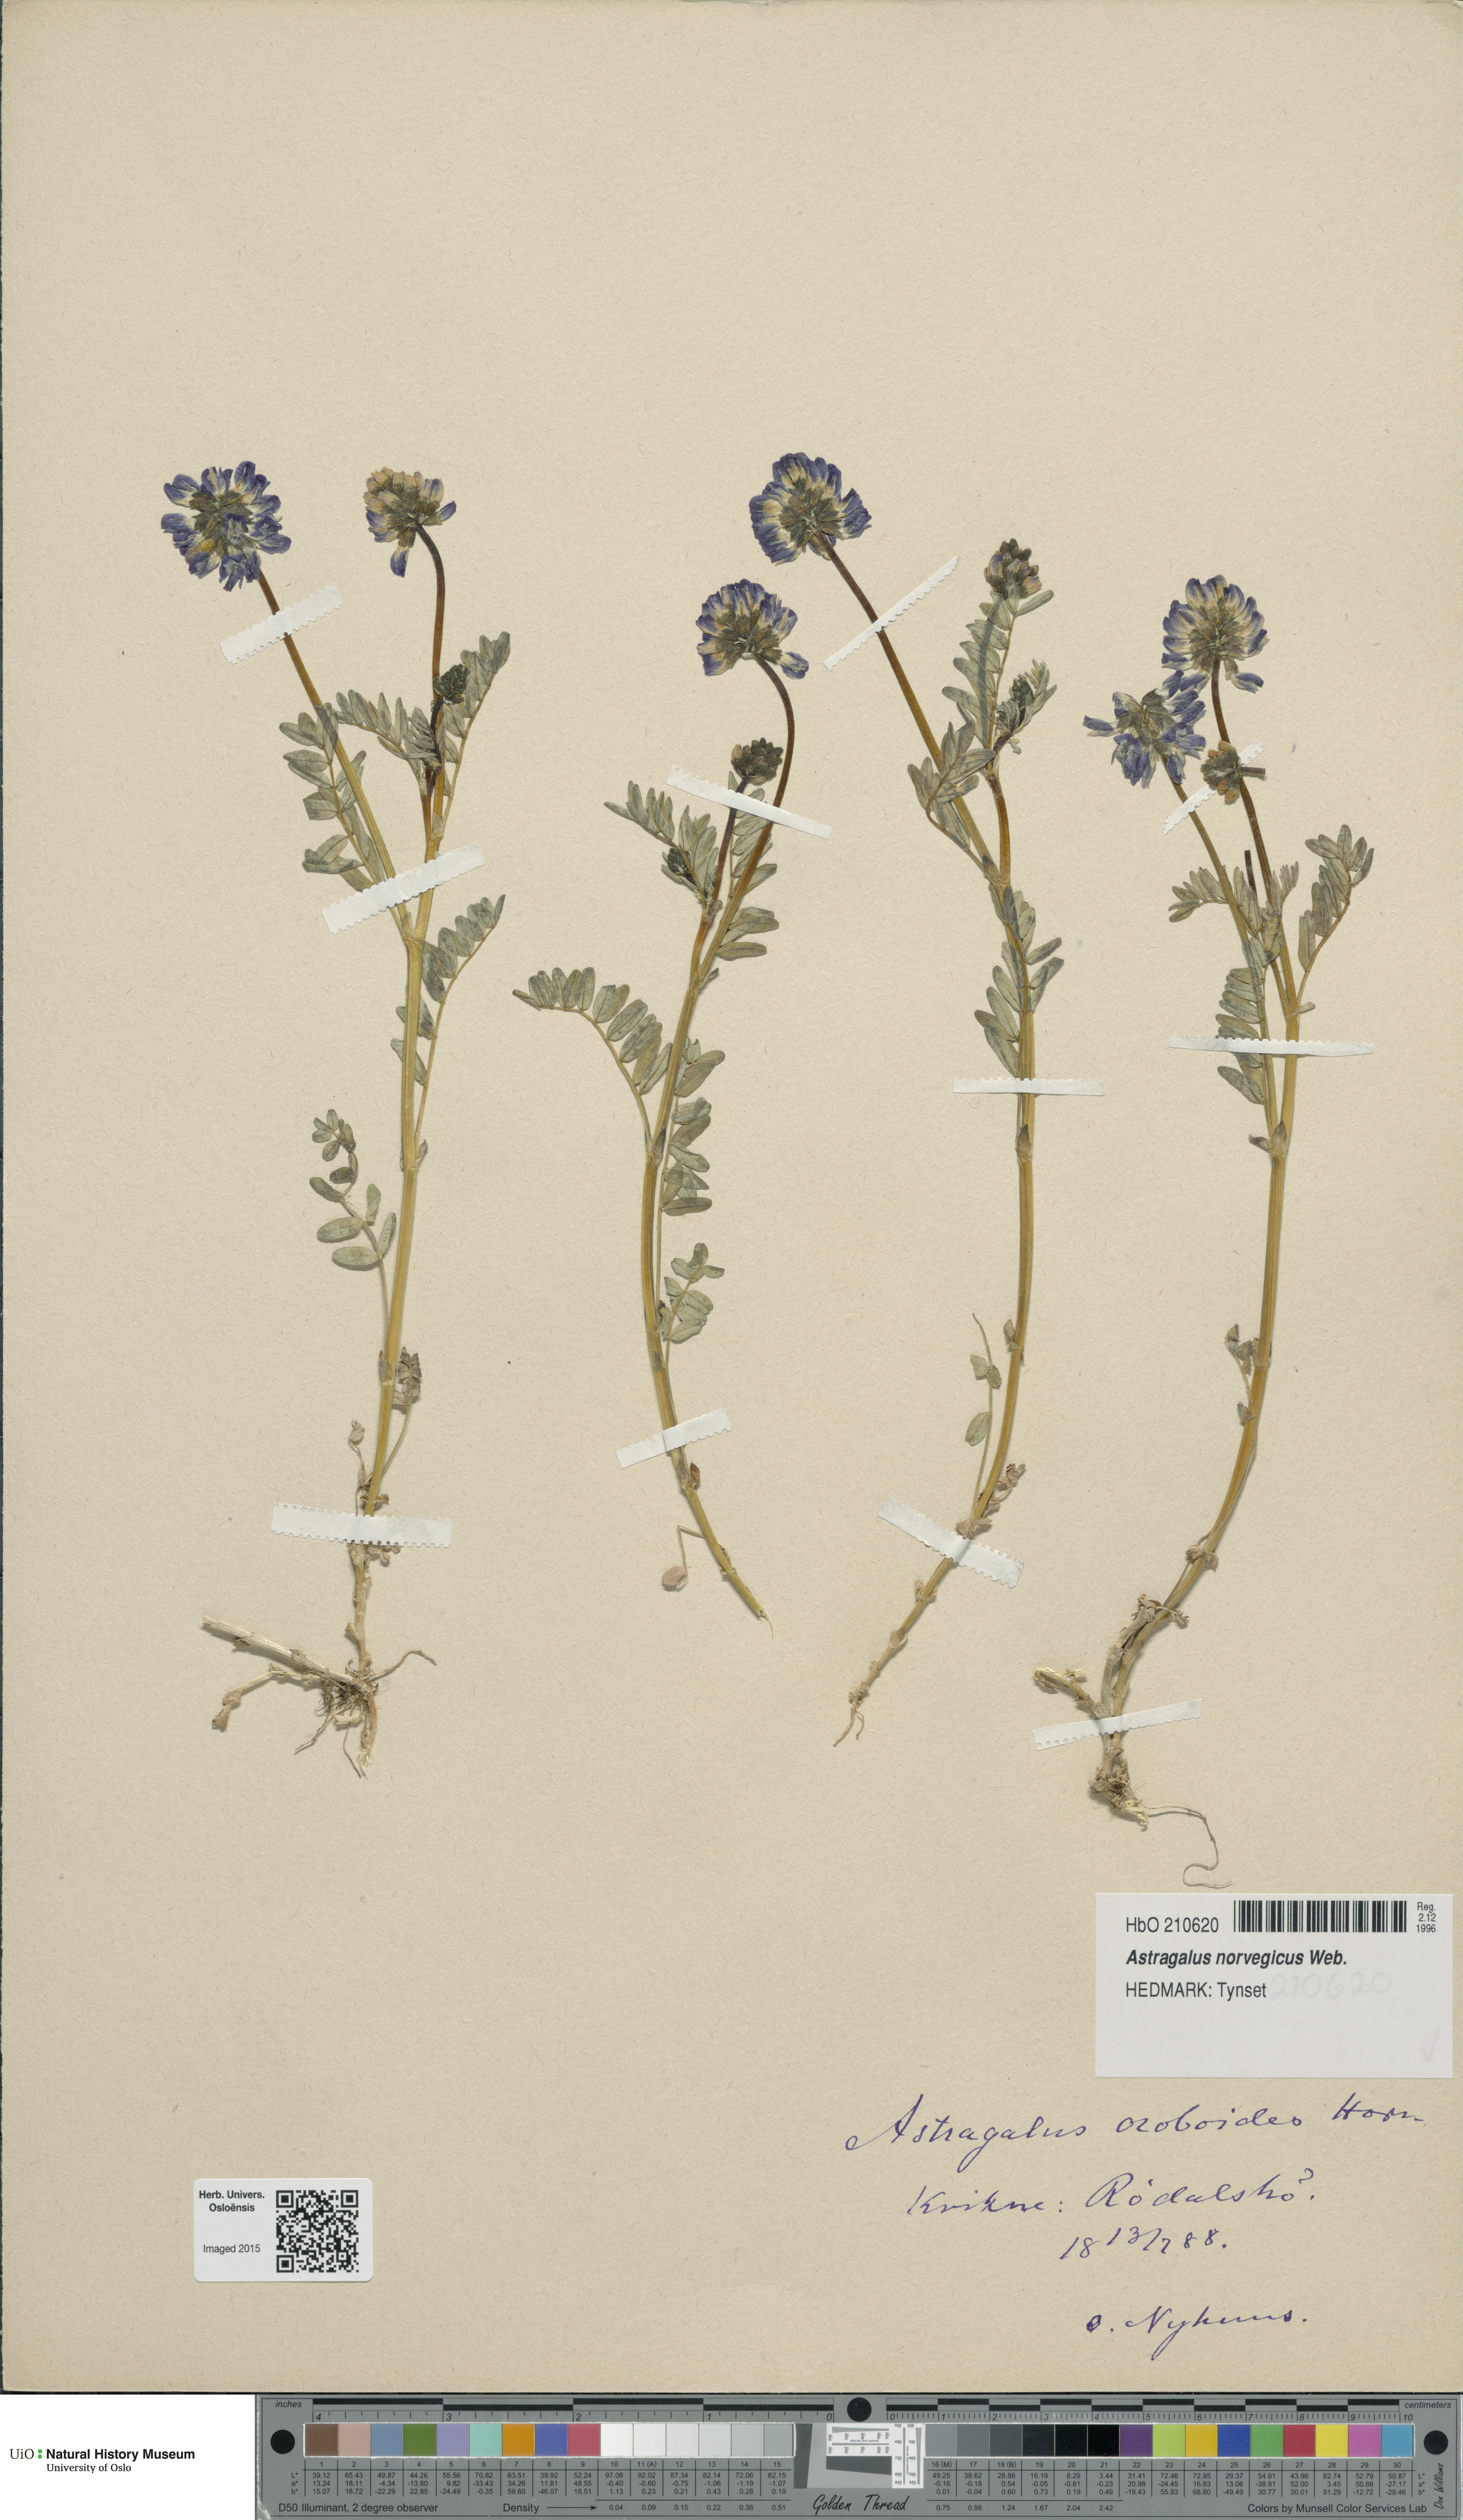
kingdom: Plantae
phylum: Tracheophyta
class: Magnoliopsida
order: Fabales
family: Fabaceae
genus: Astragalus
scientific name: Astragalus norvegicus
